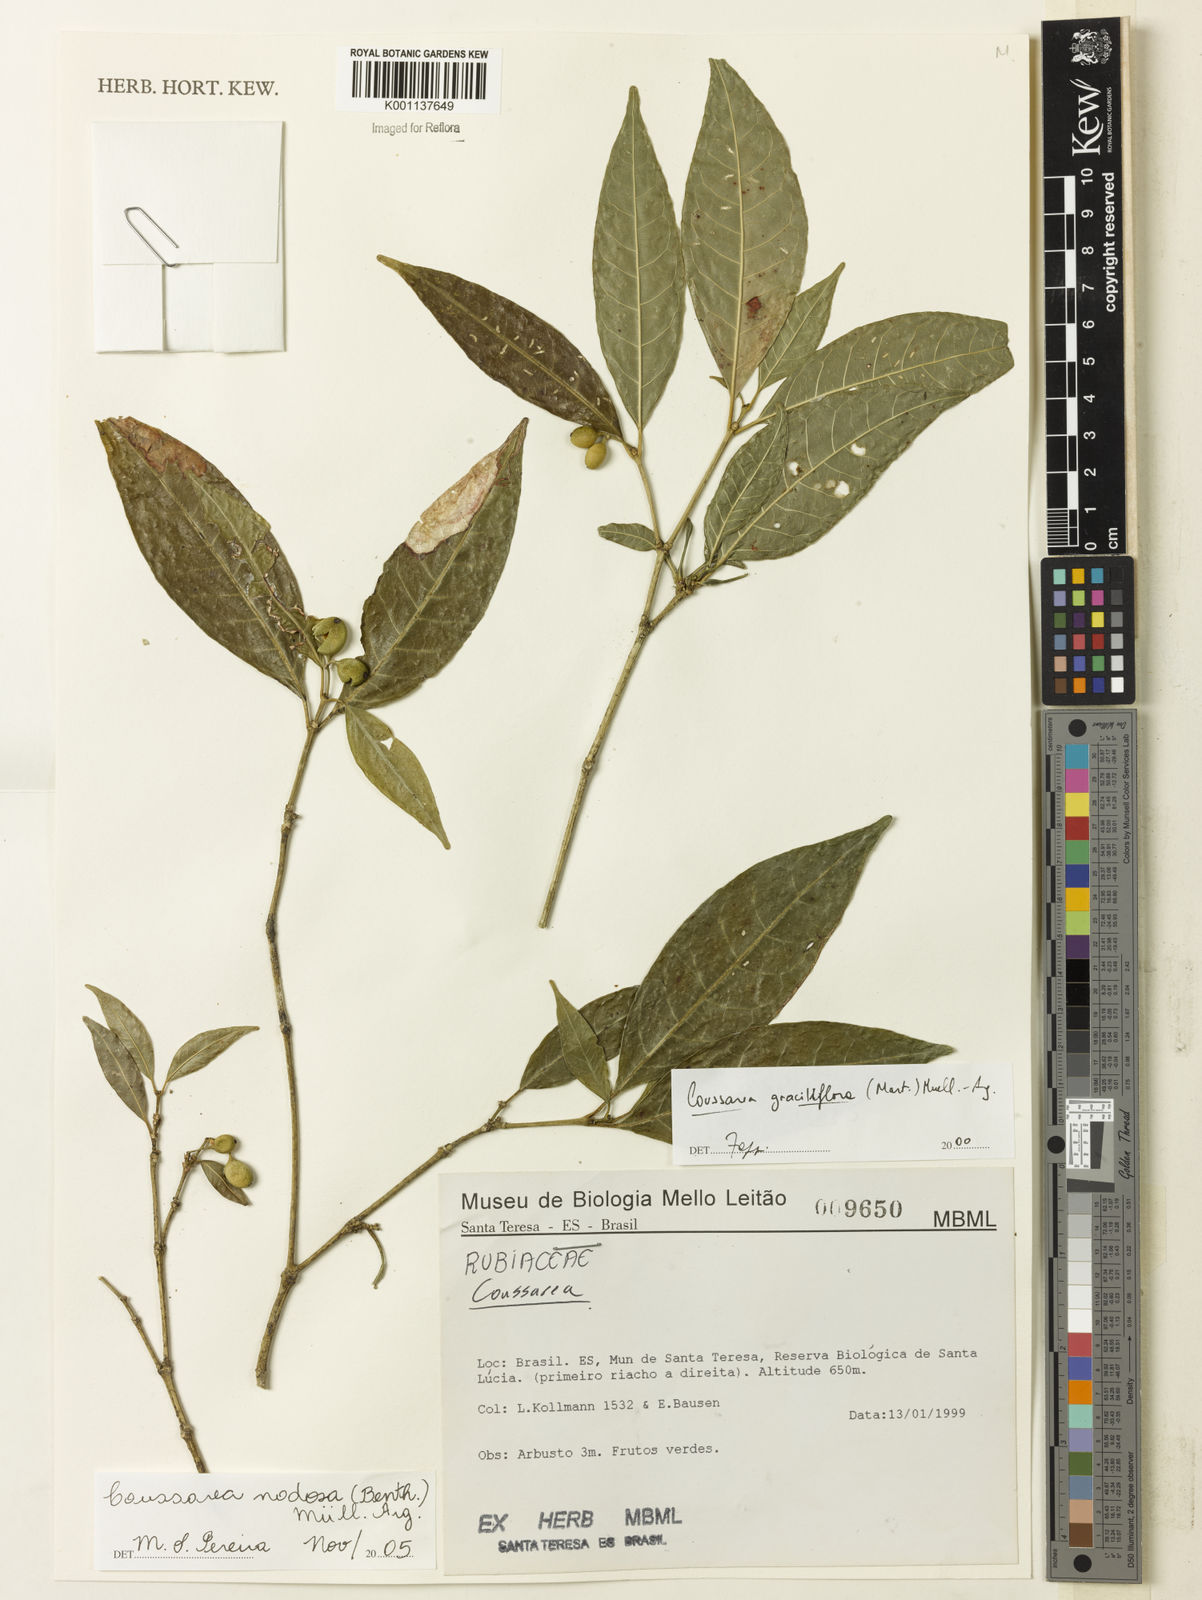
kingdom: Plantae
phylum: Tracheophyta
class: Magnoliopsida
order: Gentianales
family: Rubiaceae
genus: Coussarea
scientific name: Coussarea
